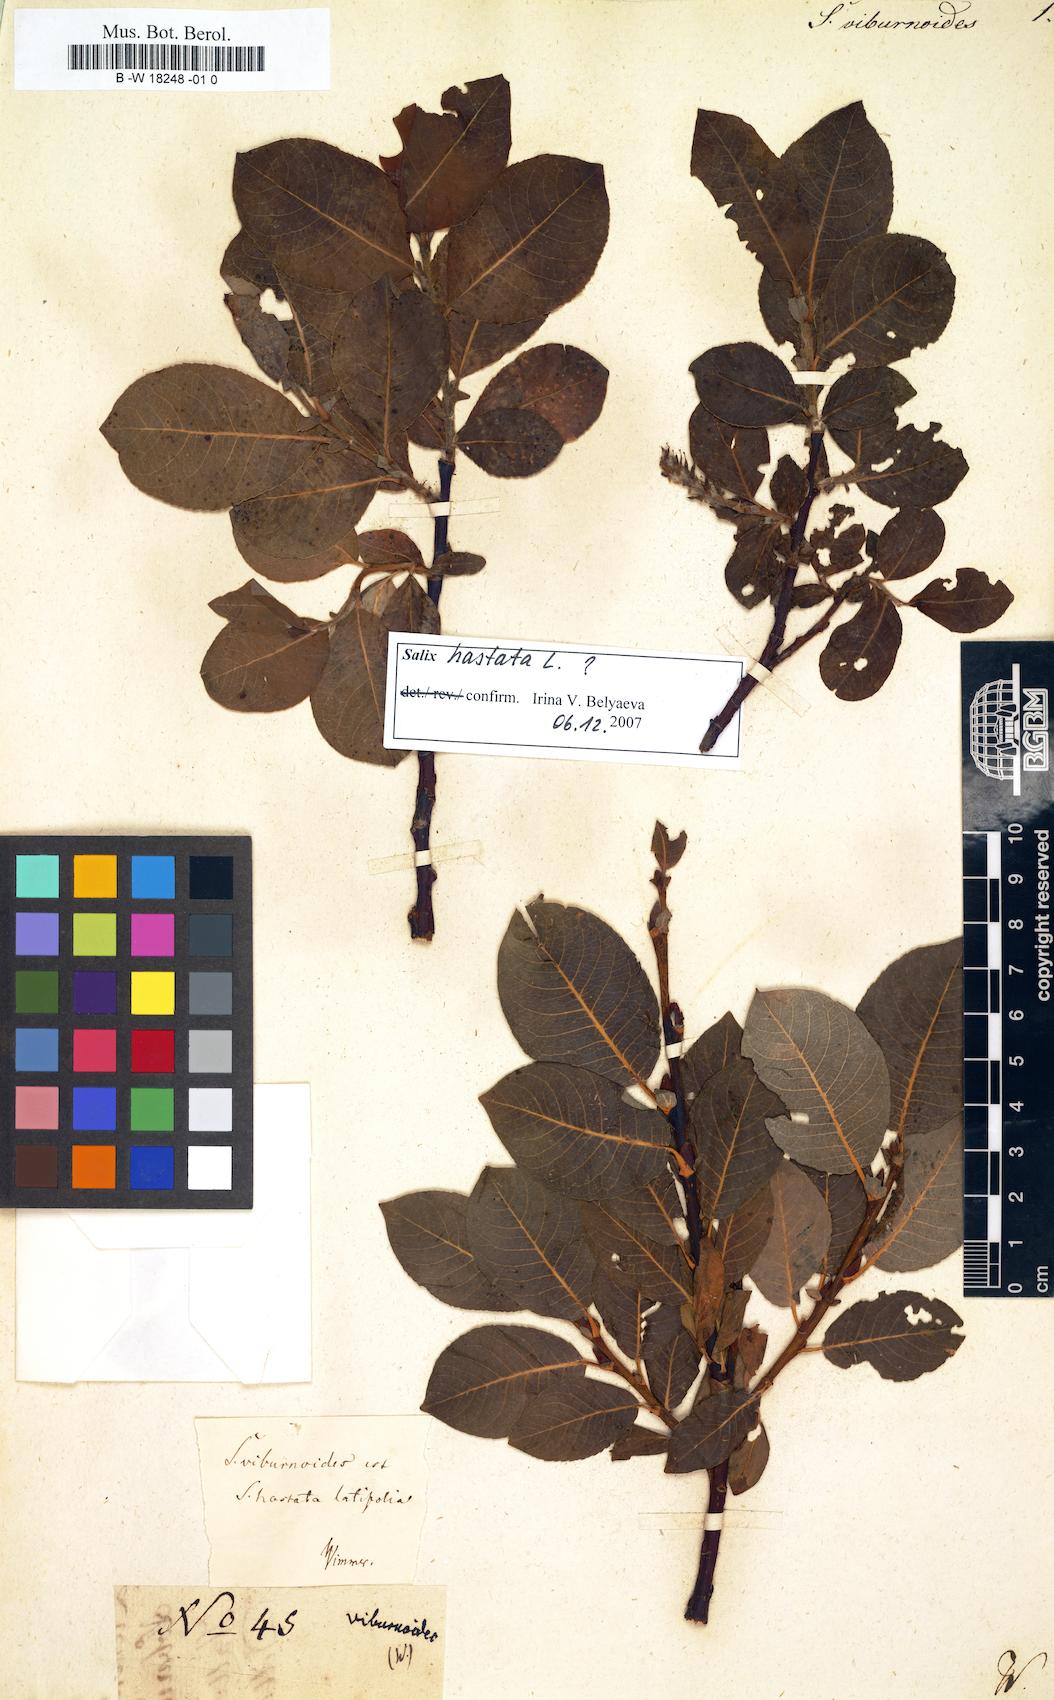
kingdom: Plantae
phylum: Tracheophyta
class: Magnoliopsida
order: Malpighiales
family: Salicaceae
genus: Salix
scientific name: Salix hastata
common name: Halberd willow
